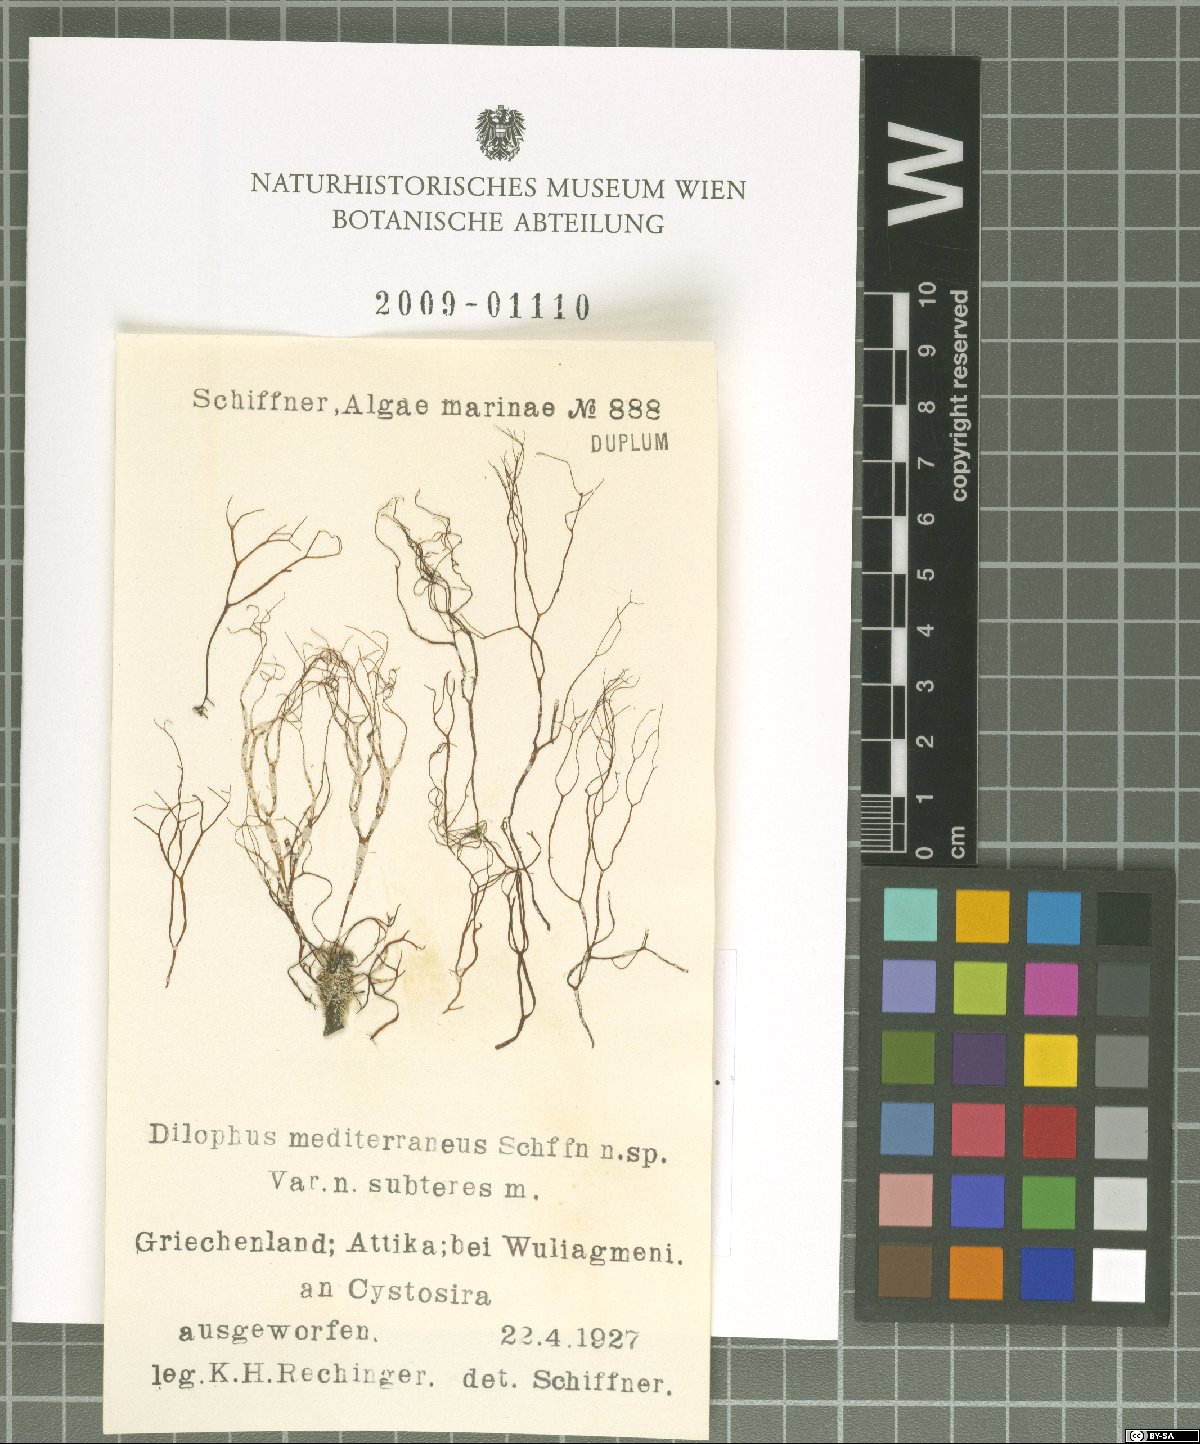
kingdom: Chromista
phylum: Ochrophyta
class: Phaeophyceae
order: Dictyotales
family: Dictyotaceae
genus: Dictyota
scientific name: Dictyota
